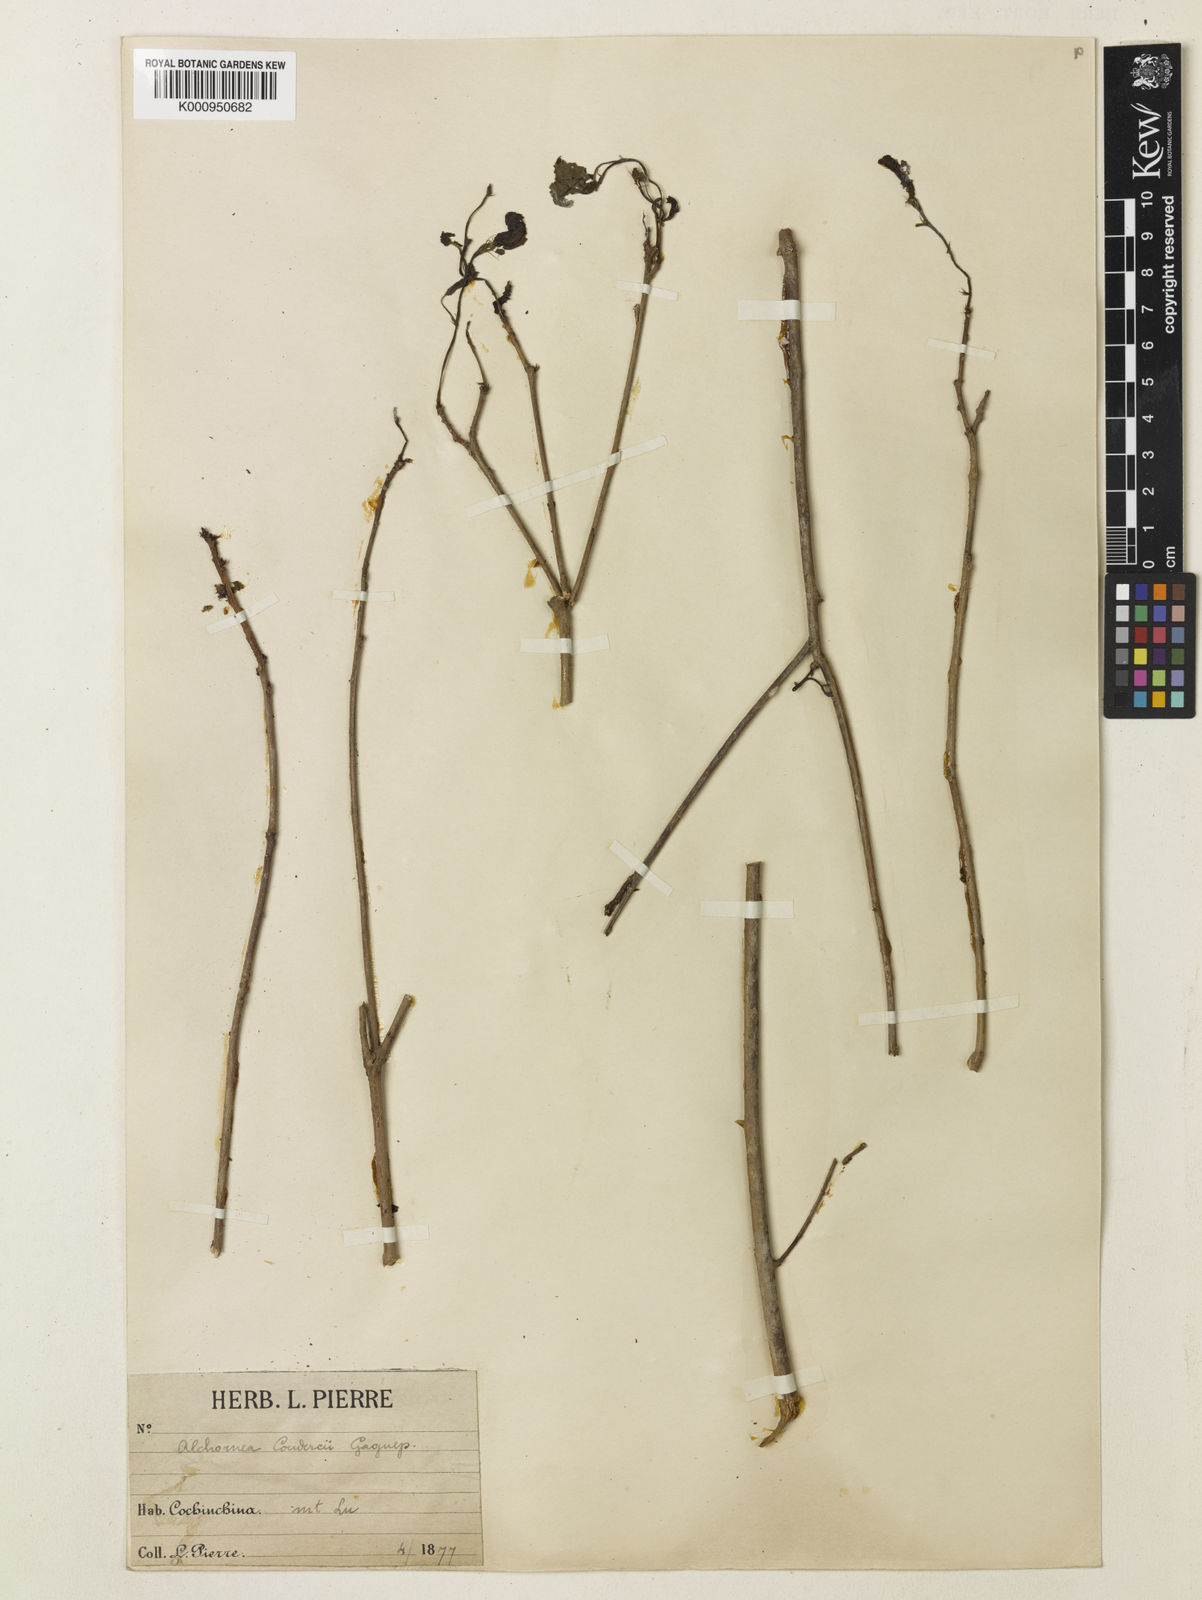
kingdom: Plantae
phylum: Tracheophyta
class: Magnoliopsida
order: Malpighiales
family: Euphorbiaceae
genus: Alchornea
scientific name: Alchornea
